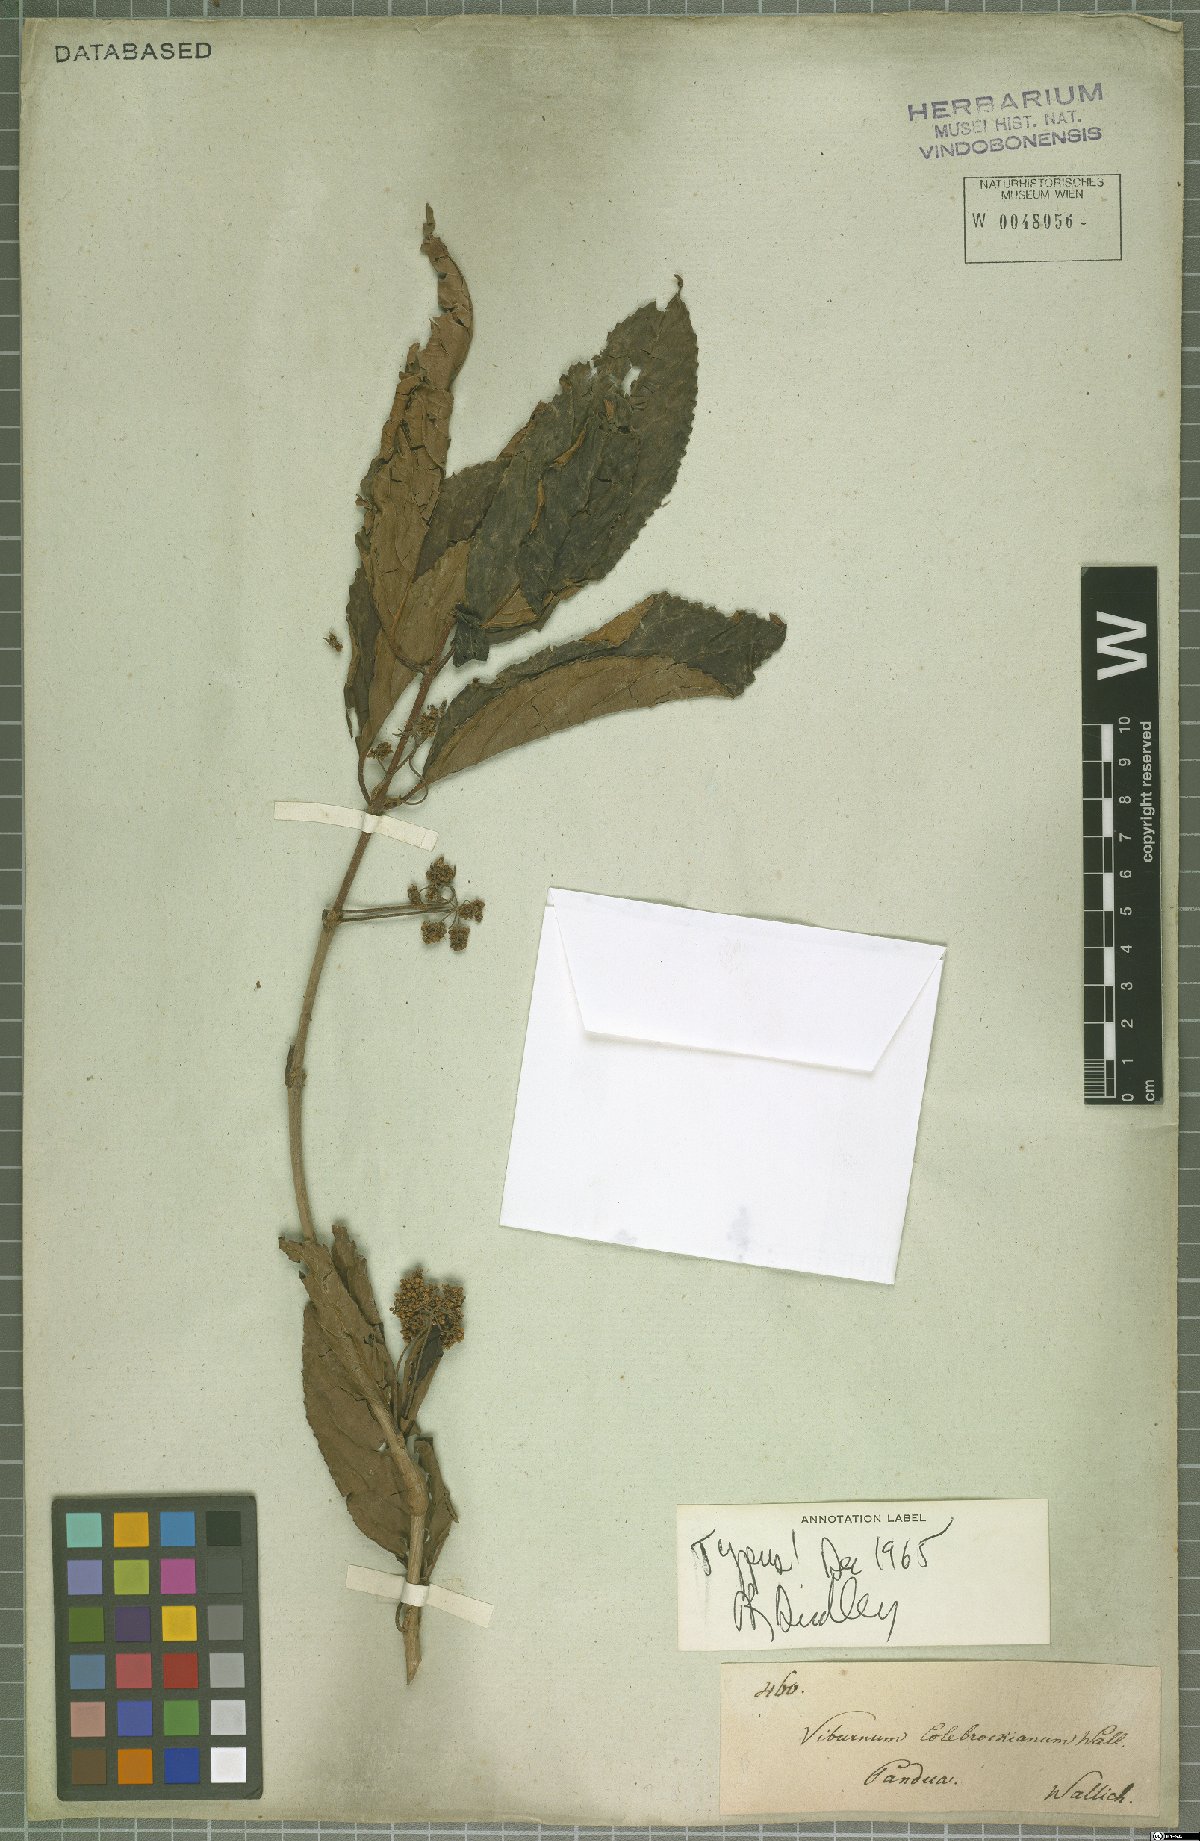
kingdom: Plantae
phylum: Tracheophyta
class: Magnoliopsida
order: Dipsacales
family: Viburnaceae
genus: Viburnum
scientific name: Viburnum colebrookeanum
